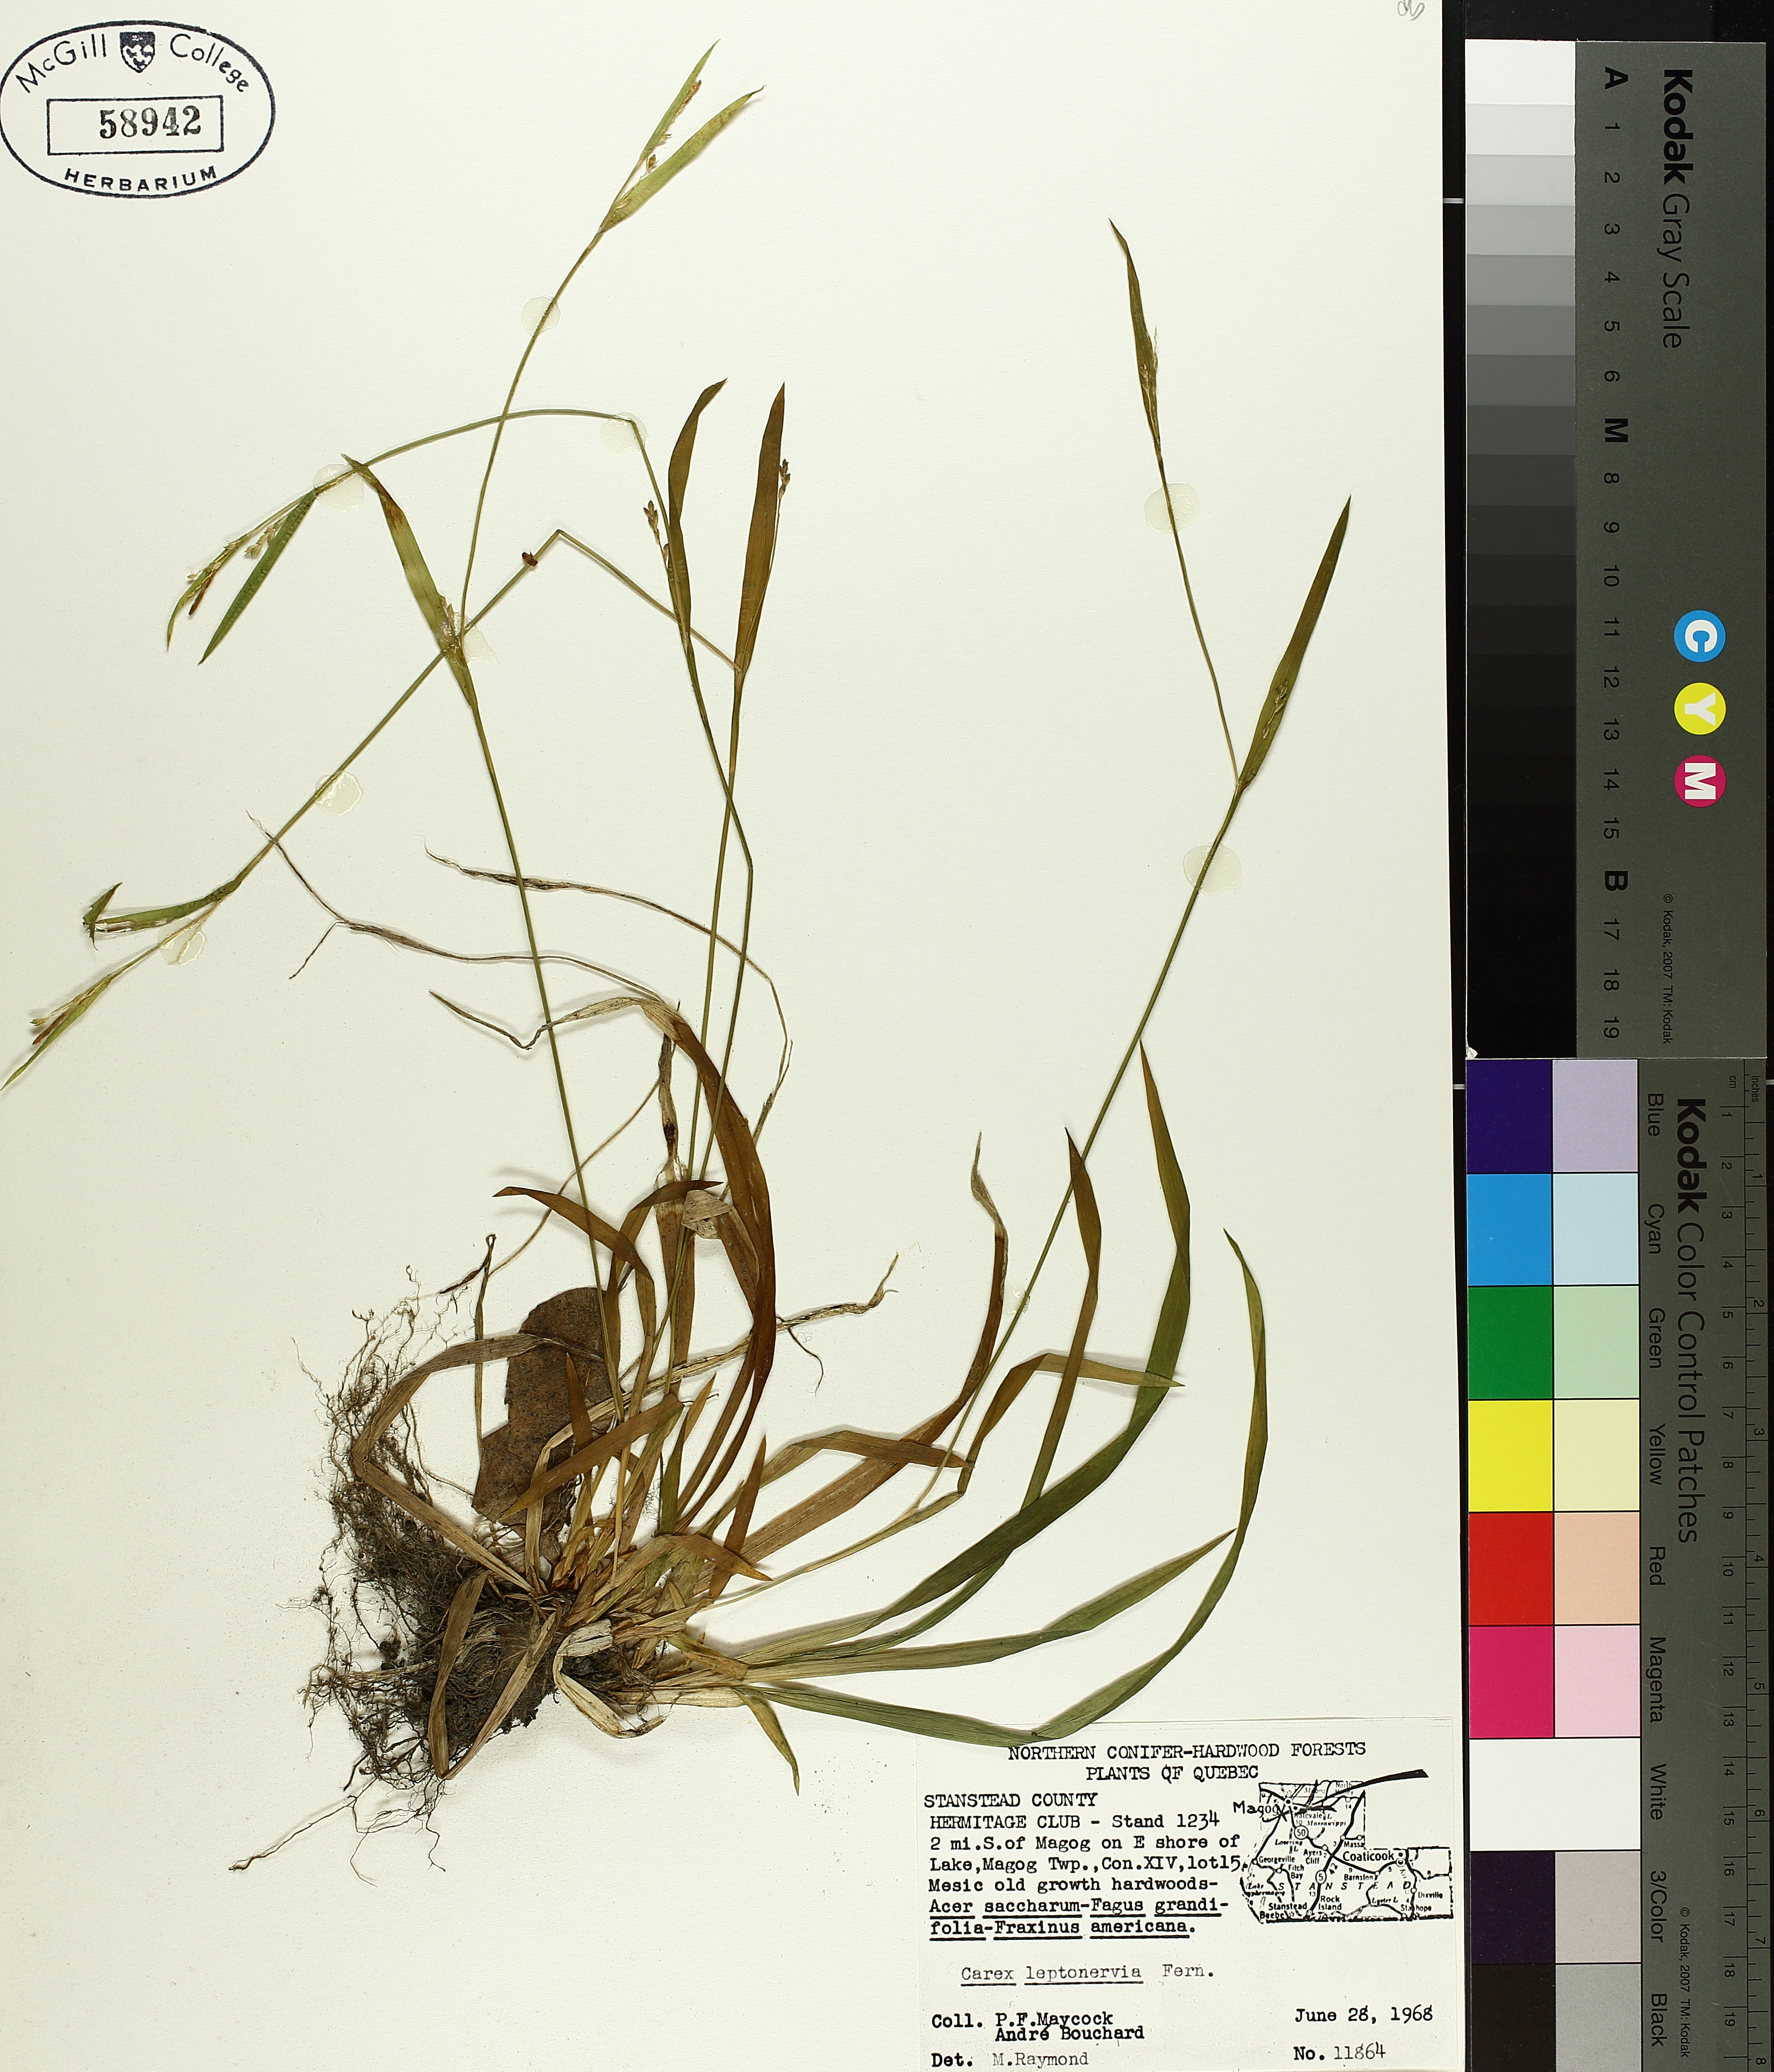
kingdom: Plantae
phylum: Tracheophyta
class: Liliopsida
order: Poales
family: Cyperaceae
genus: Carex
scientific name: Carex leptonervia
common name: Few-nerved wood sedge
